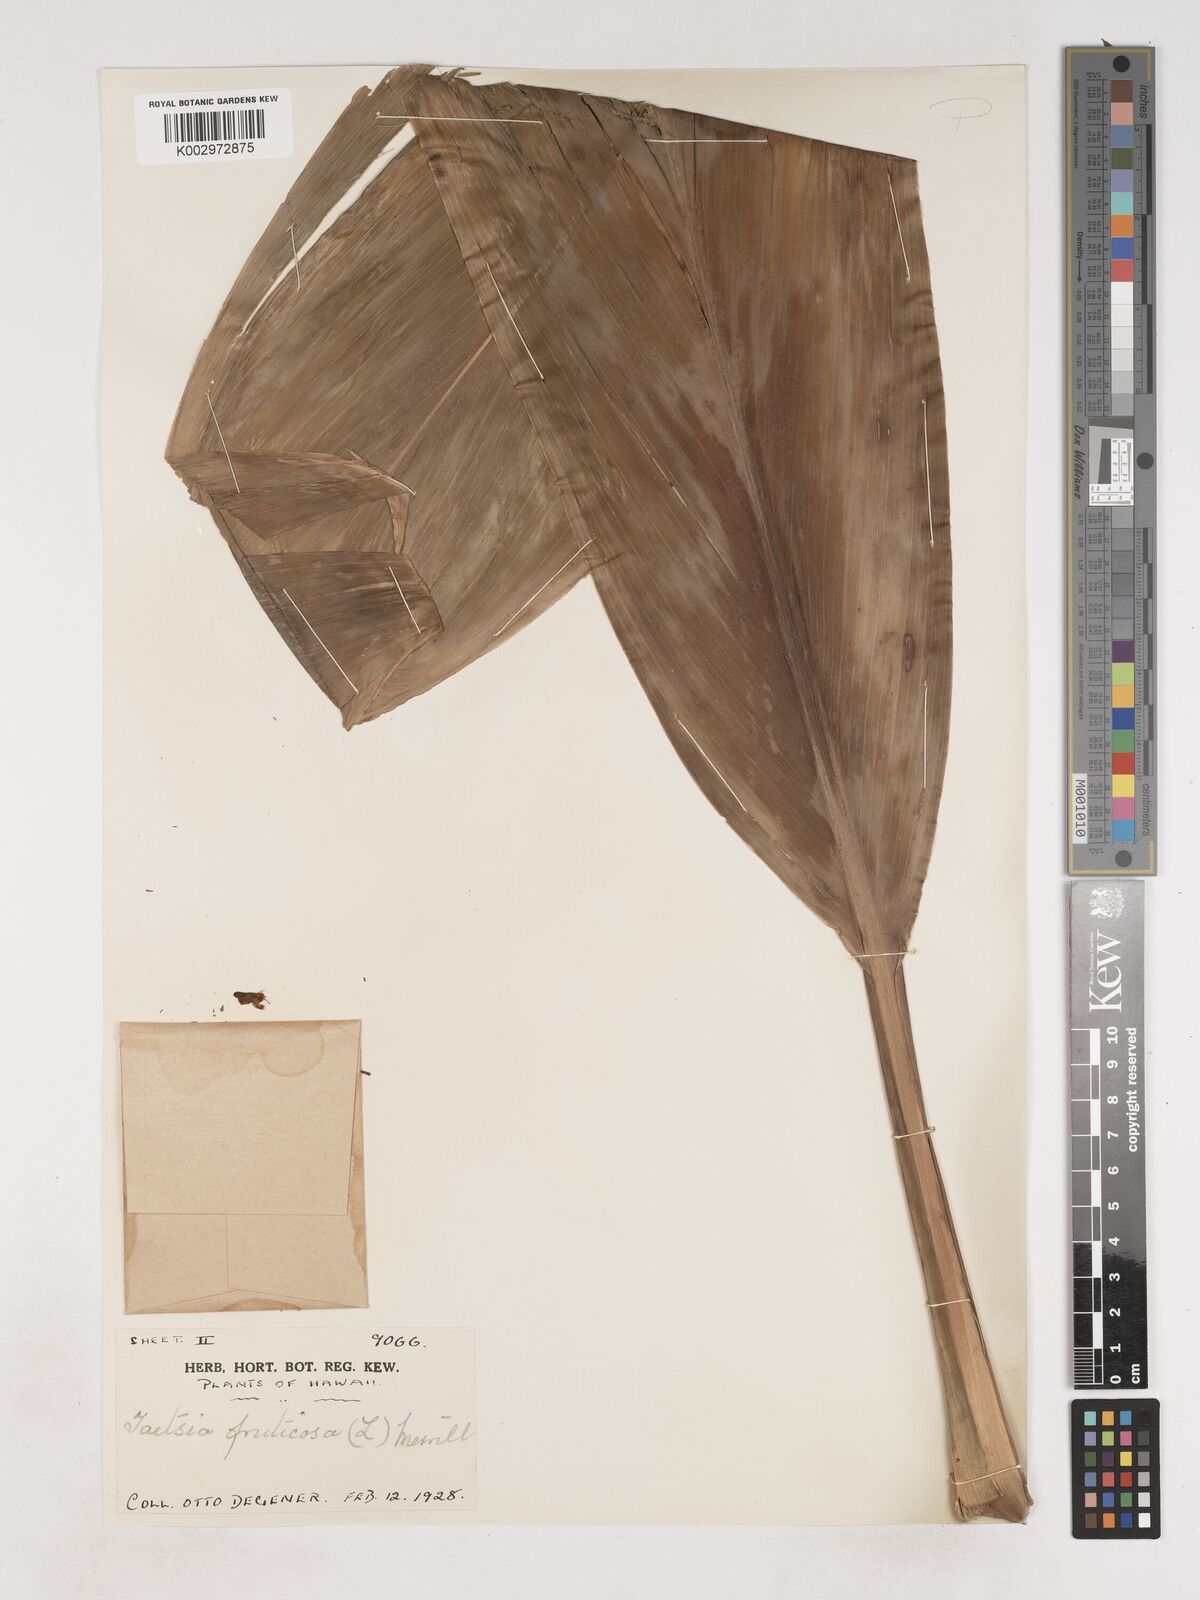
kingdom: Plantae
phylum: Tracheophyta
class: Liliopsida
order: Asparagales
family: Asparagaceae
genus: Cordyline
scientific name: Cordyline fruticosa
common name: Good-luck-plant
